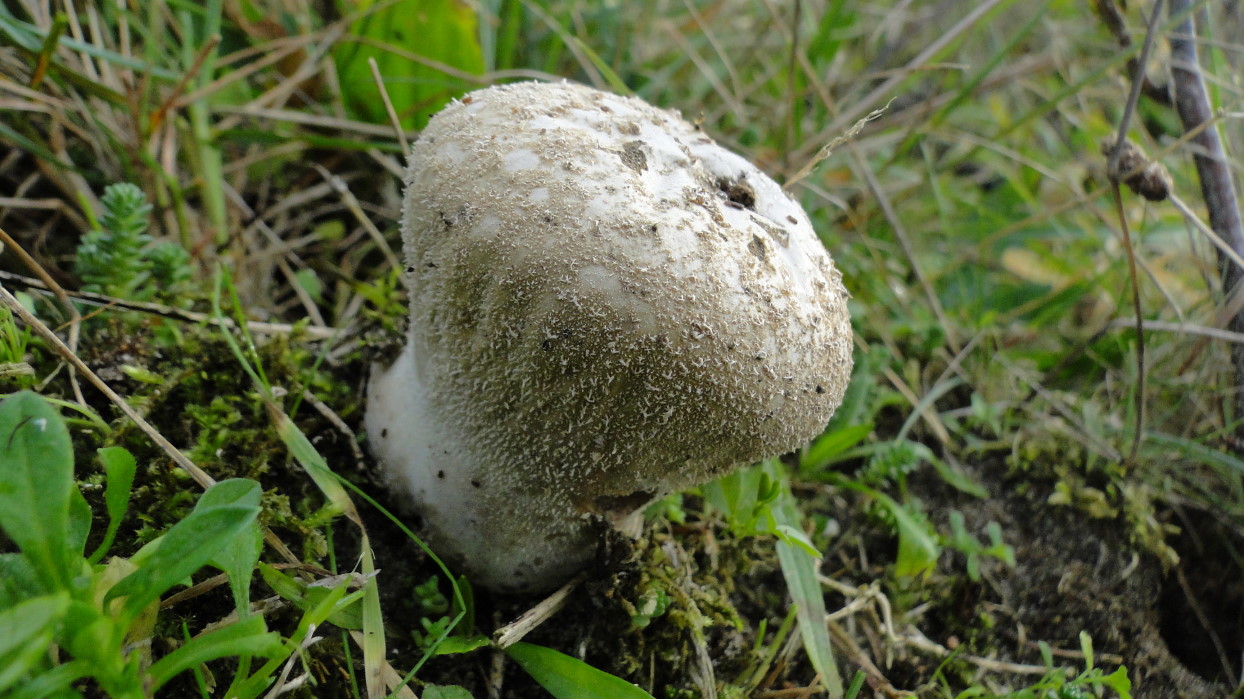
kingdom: Fungi
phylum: Basidiomycota
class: Agaricomycetes
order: Agaricales
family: Lycoperdaceae
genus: Lycoperdon
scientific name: Lycoperdon pratense
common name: flad støvbold
